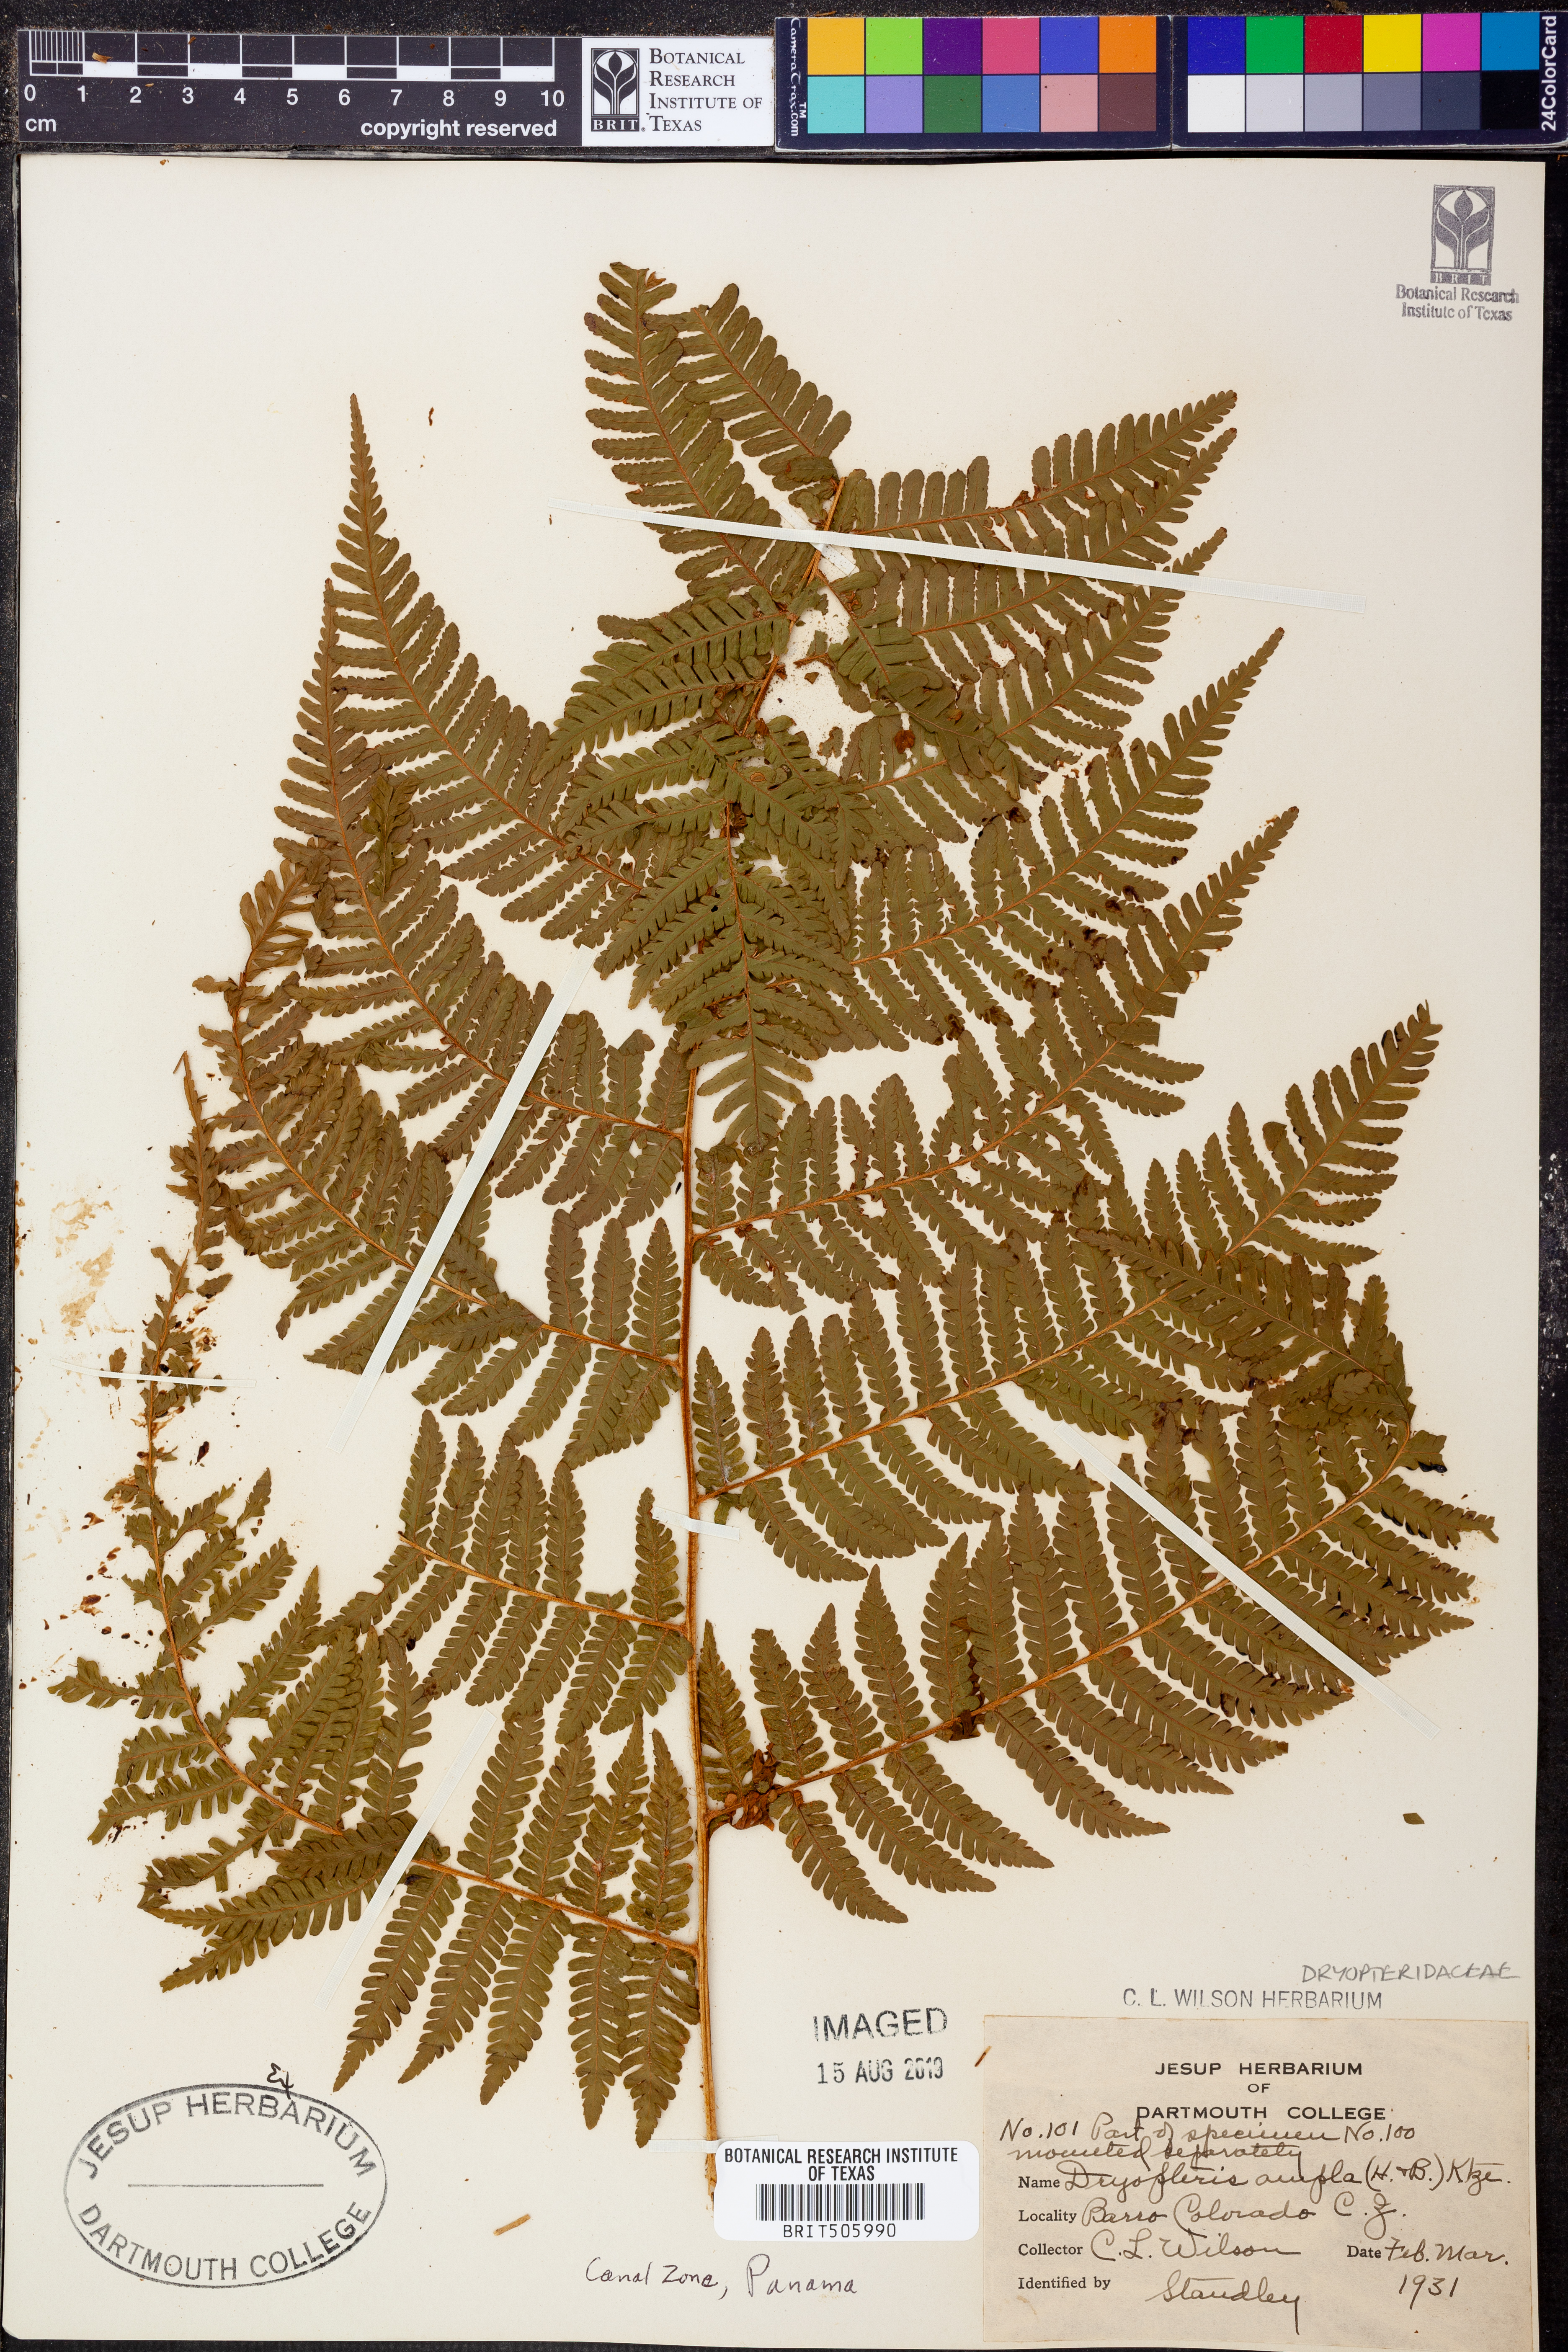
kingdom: Plantae
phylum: Tracheophyta
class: Polypodiopsida
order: Polypodiales
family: Dryopteridaceae
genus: Ctenitis
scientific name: Ctenitis sloanei
